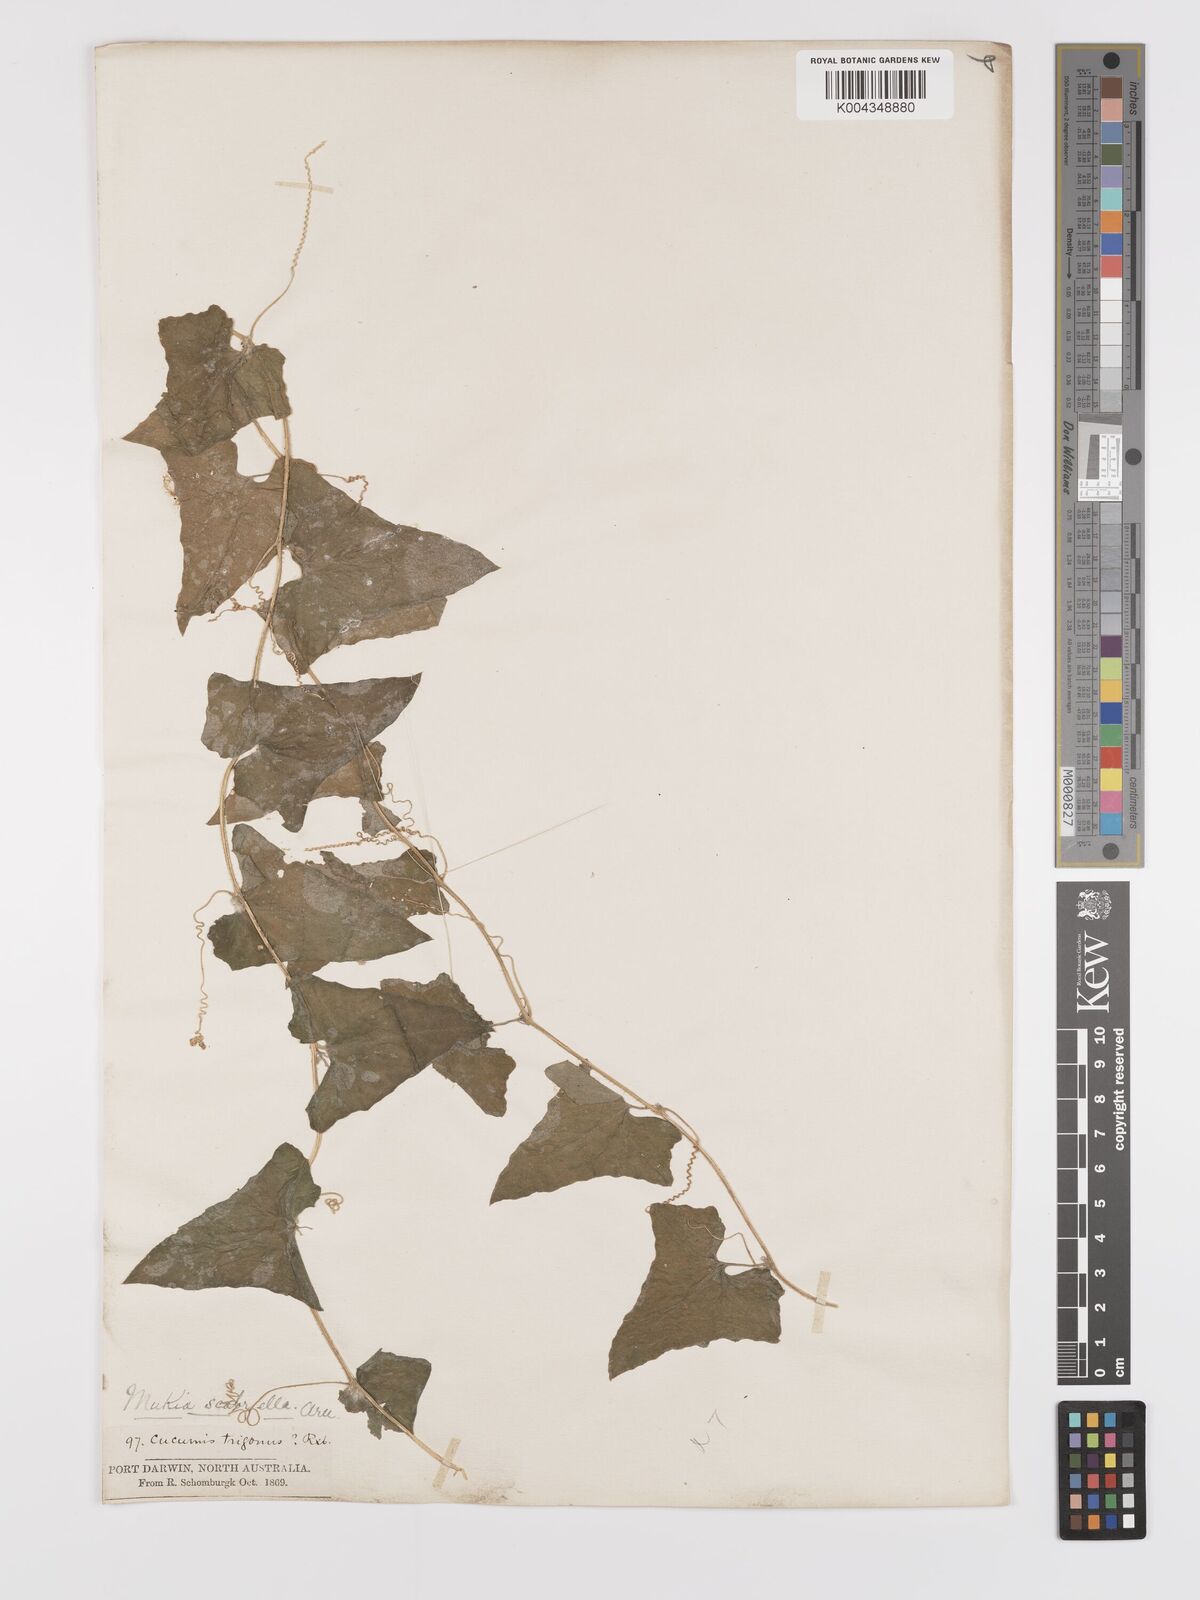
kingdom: Animalia
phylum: Arthropoda
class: Insecta
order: Lepidoptera
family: Crambidae
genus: Mukia
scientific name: Mukia
